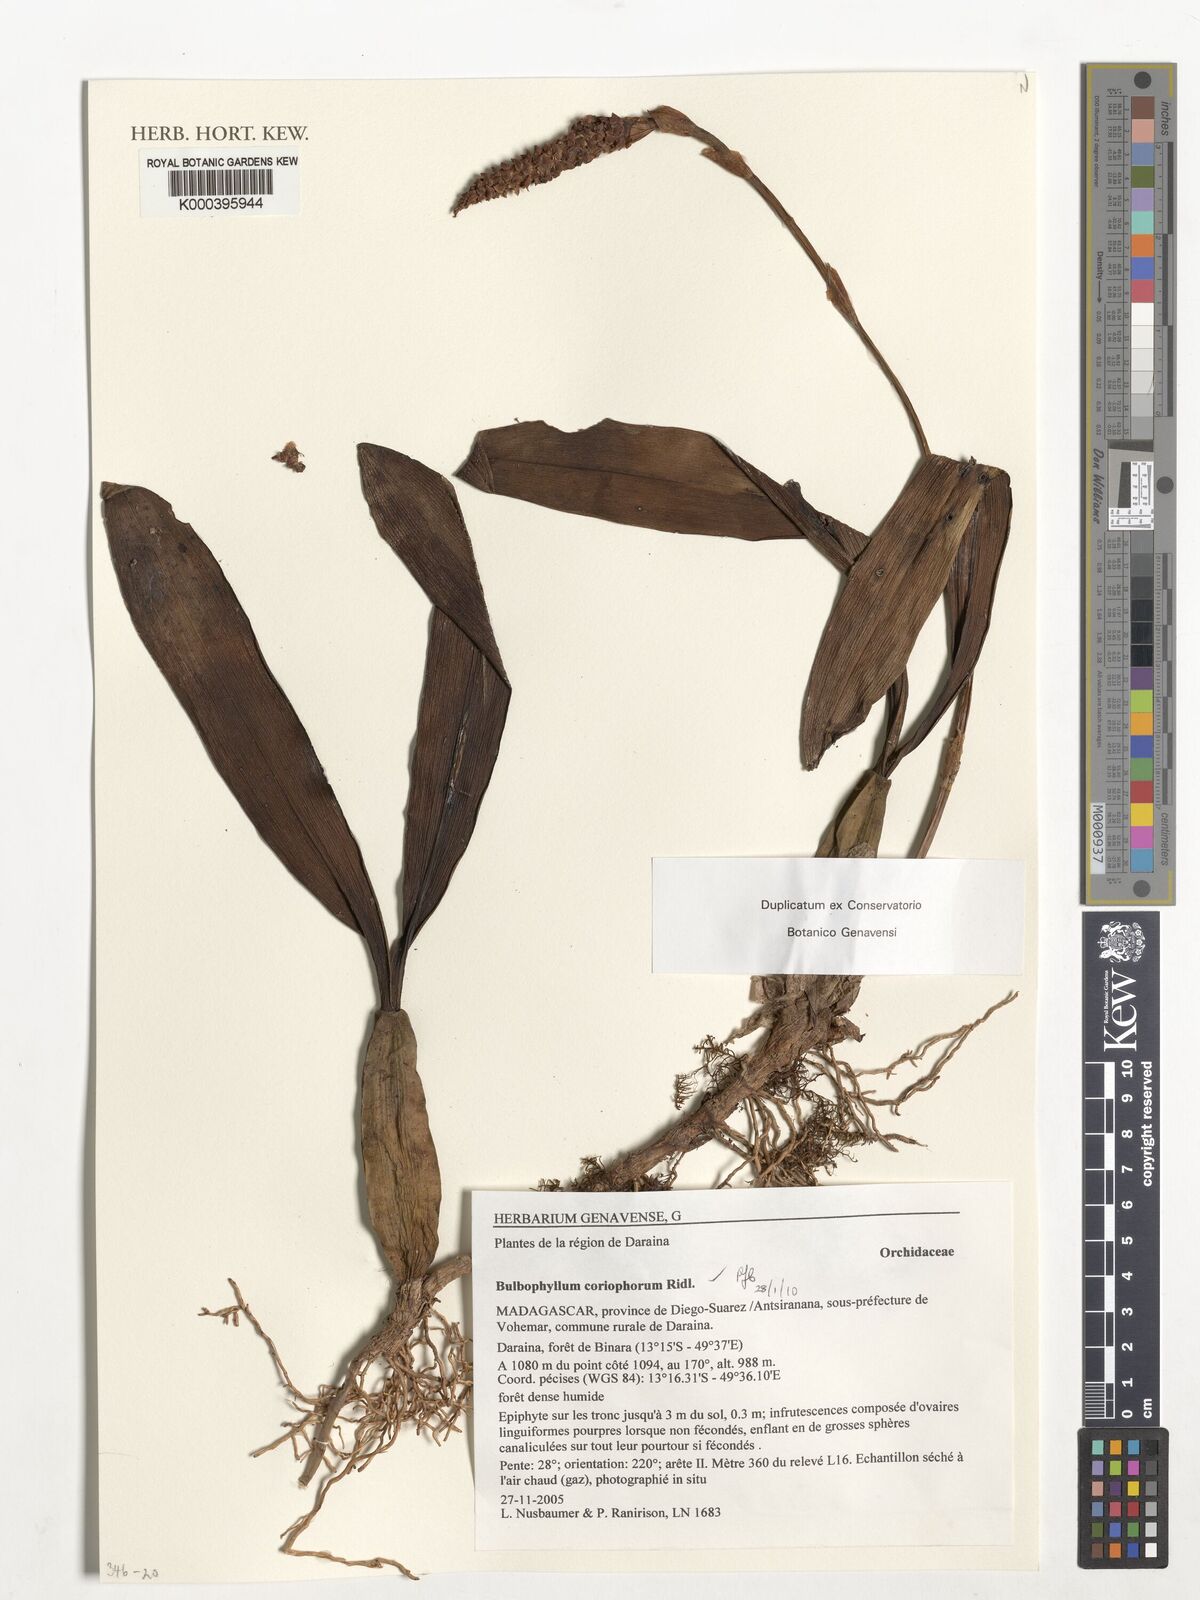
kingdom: Plantae
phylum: Tracheophyta
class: Liliopsida
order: Asparagales
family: Orchidaceae
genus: Bulbophyllum
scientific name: Bulbophyllum coriophorum
